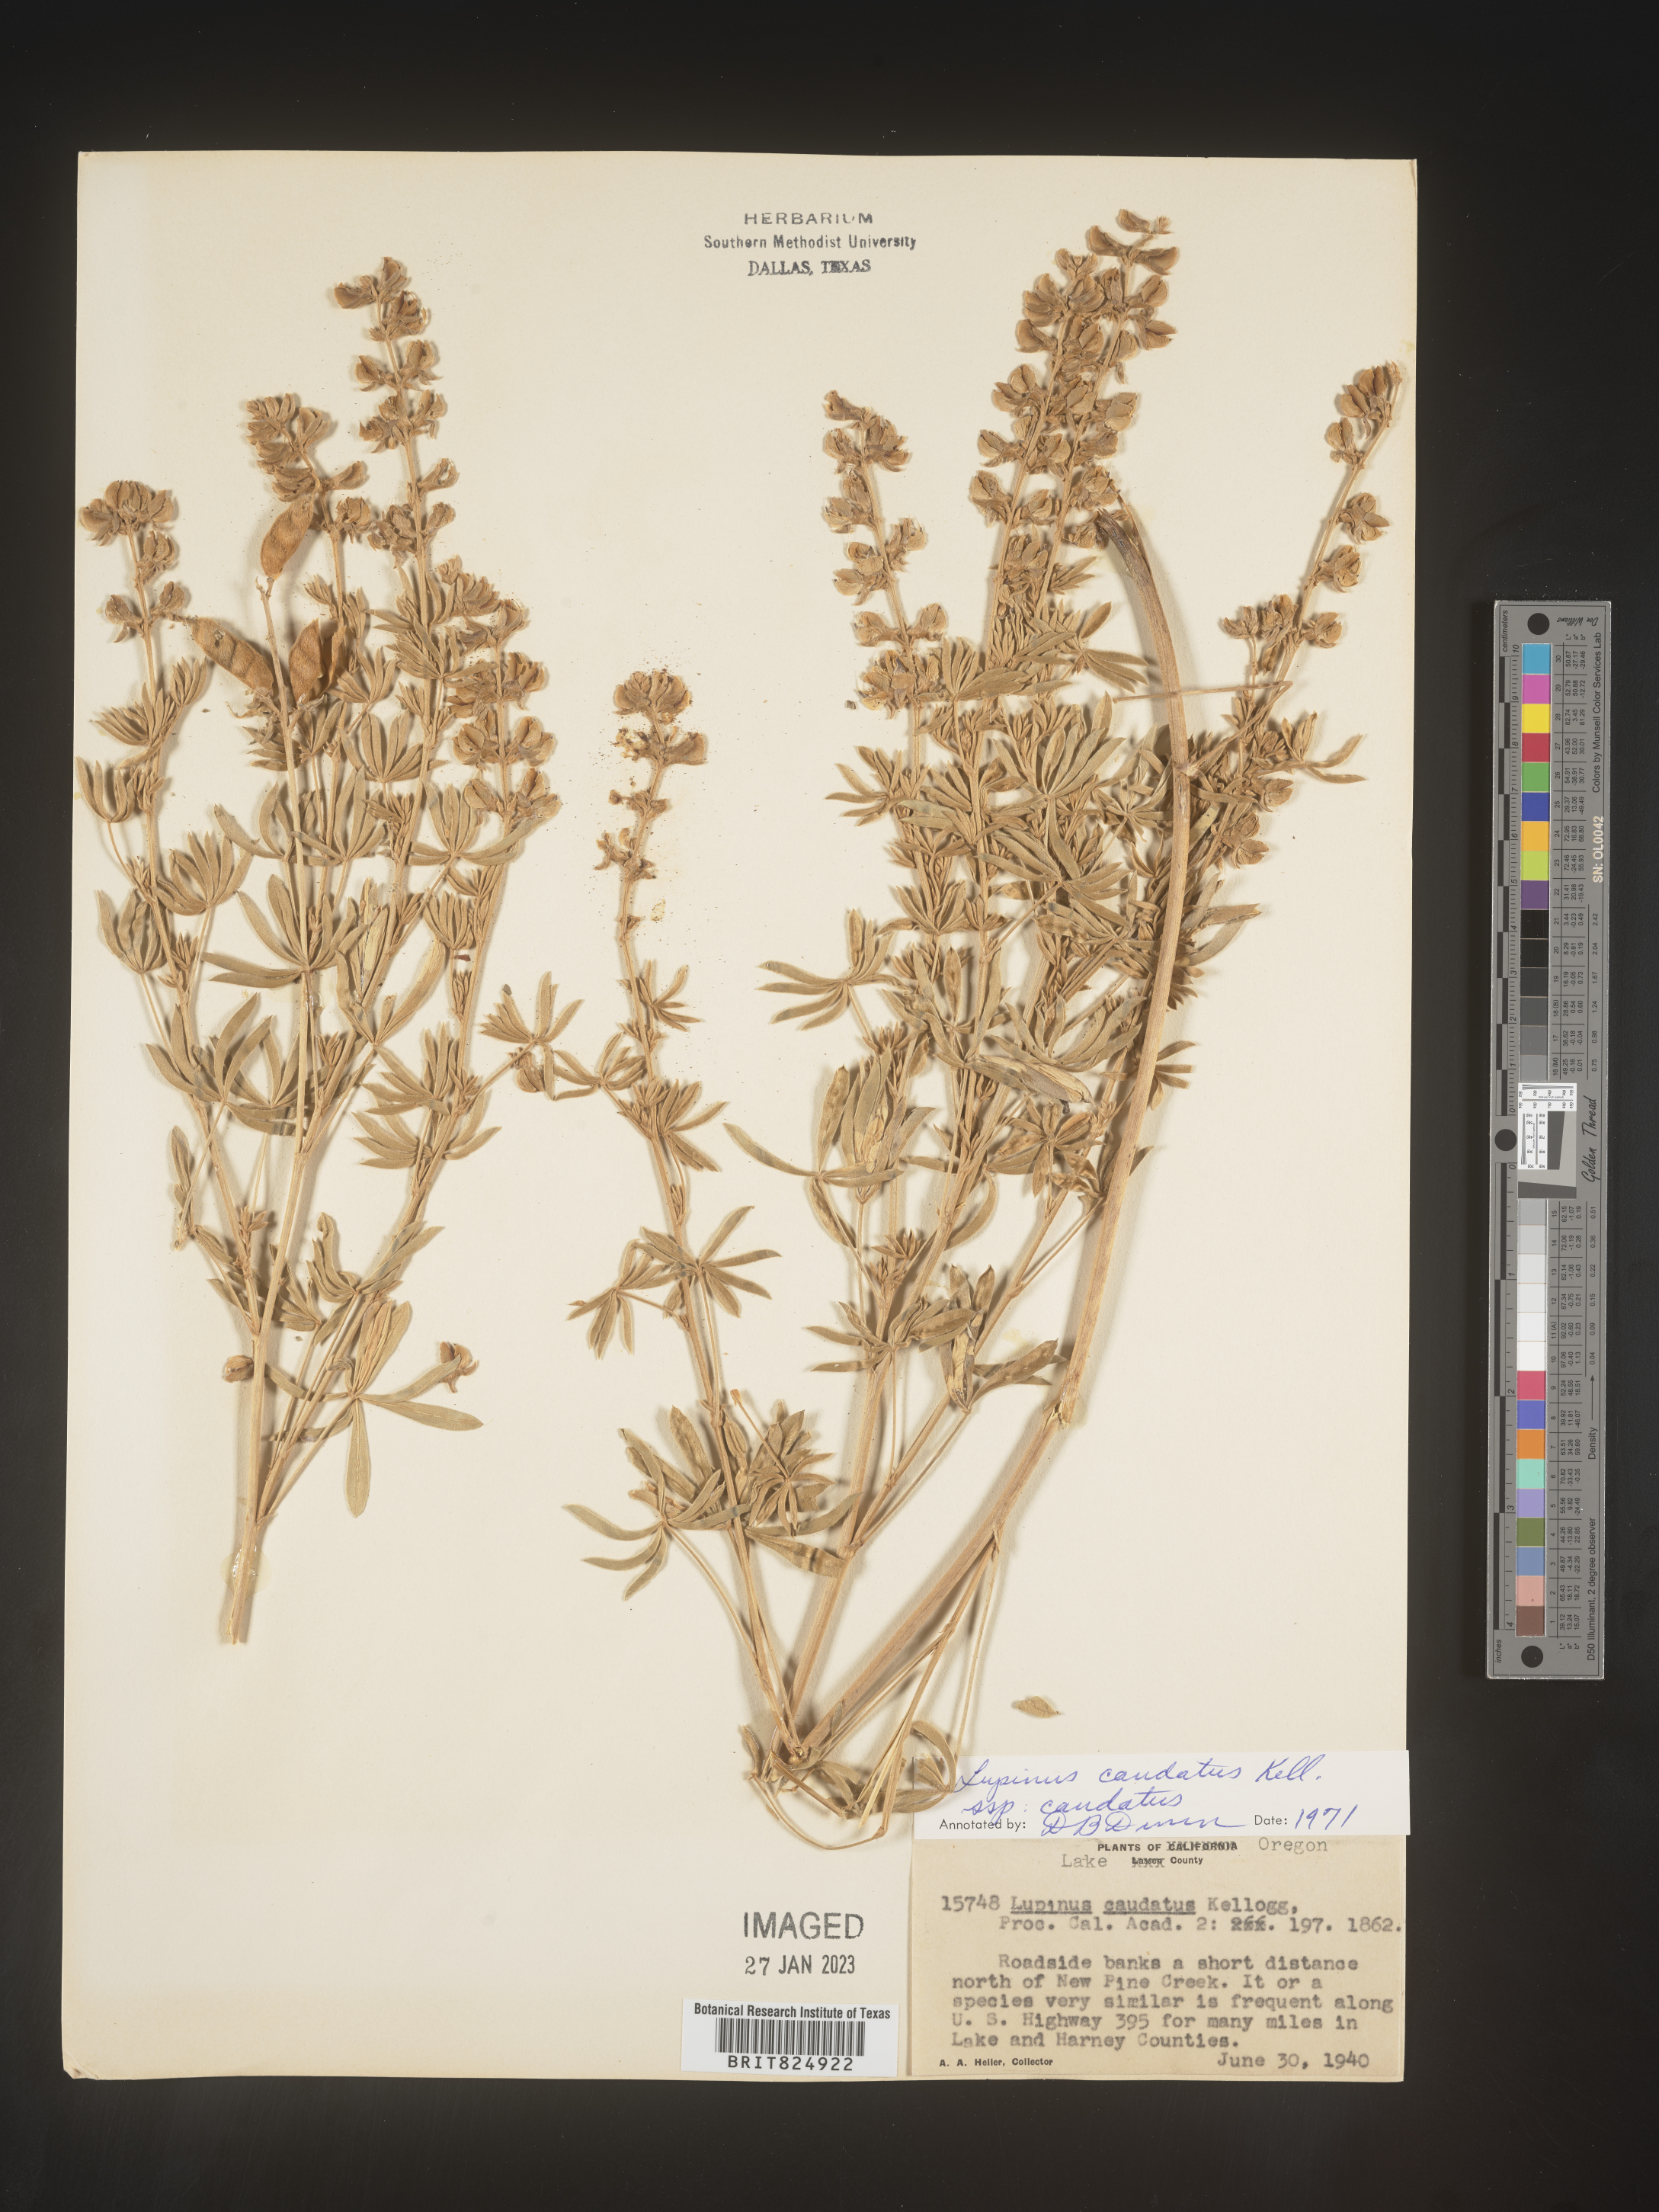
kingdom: Plantae
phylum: Tracheophyta
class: Magnoliopsida
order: Fabales
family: Fabaceae
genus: Lupinus
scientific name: Lupinus caudatus
